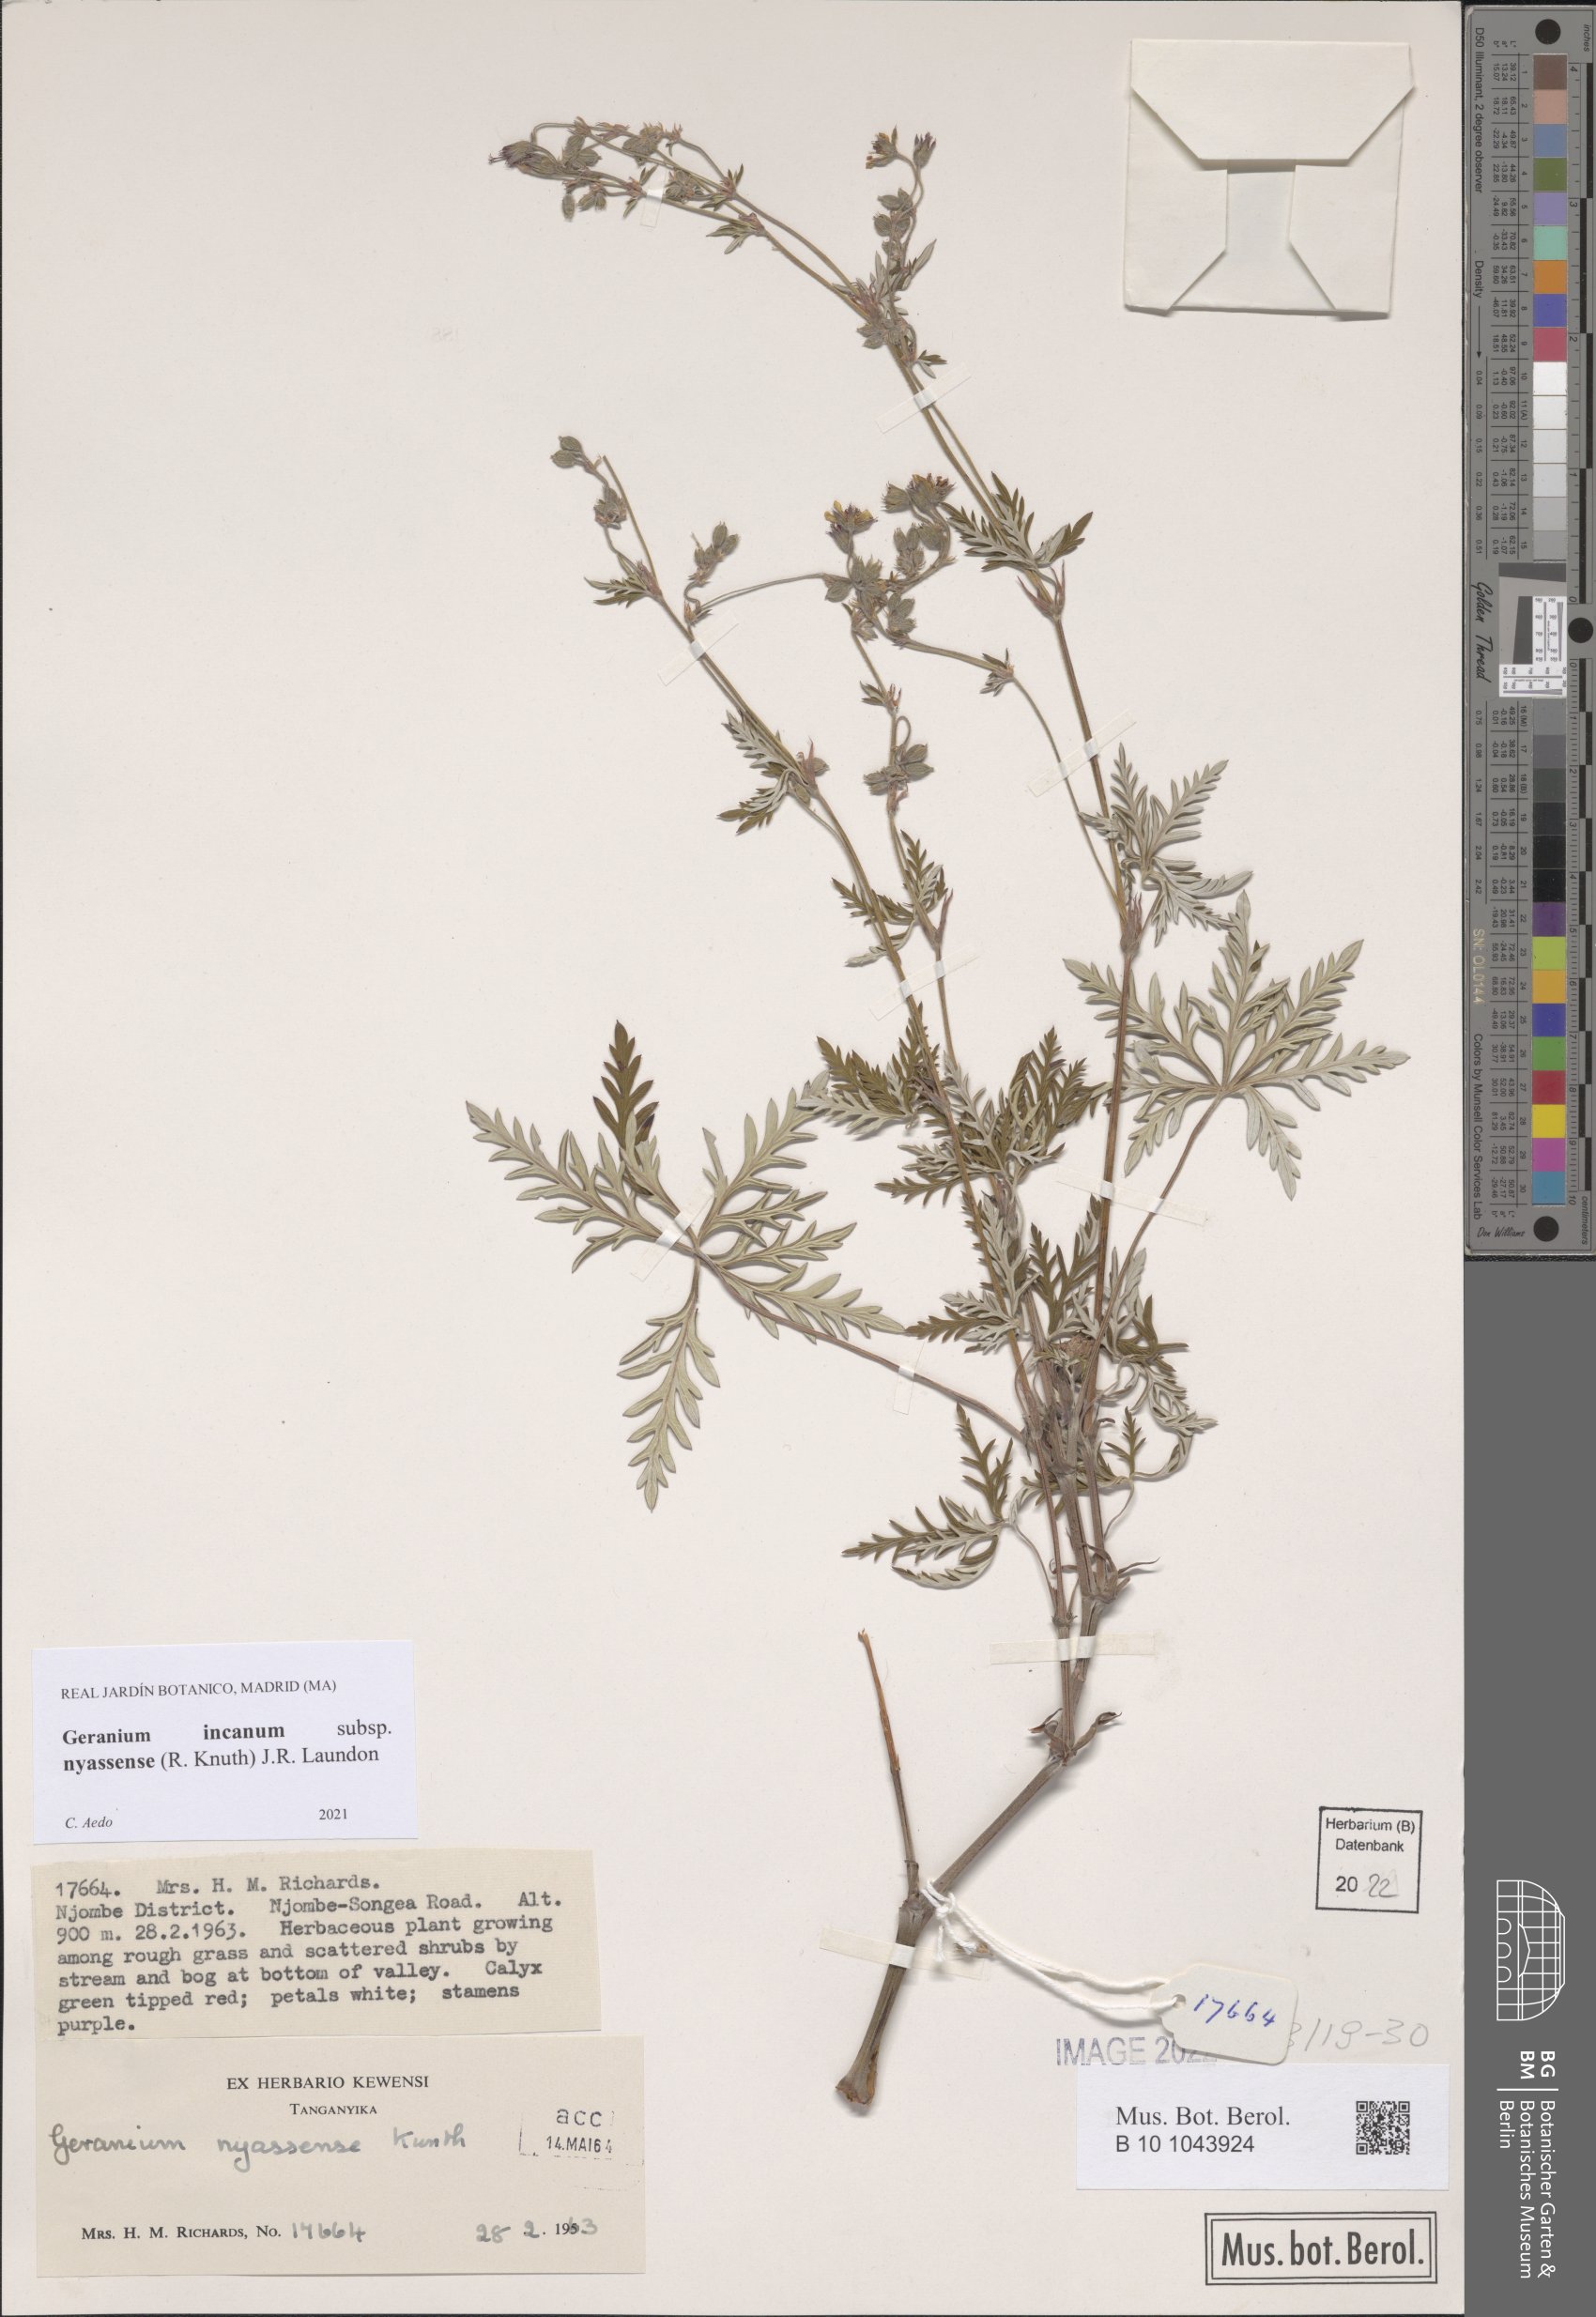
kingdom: Plantae
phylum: Tracheophyta
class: Magnoliopsida
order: Geraniales
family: Geraniaceae
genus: Geranium
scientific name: Geranium nyassense
